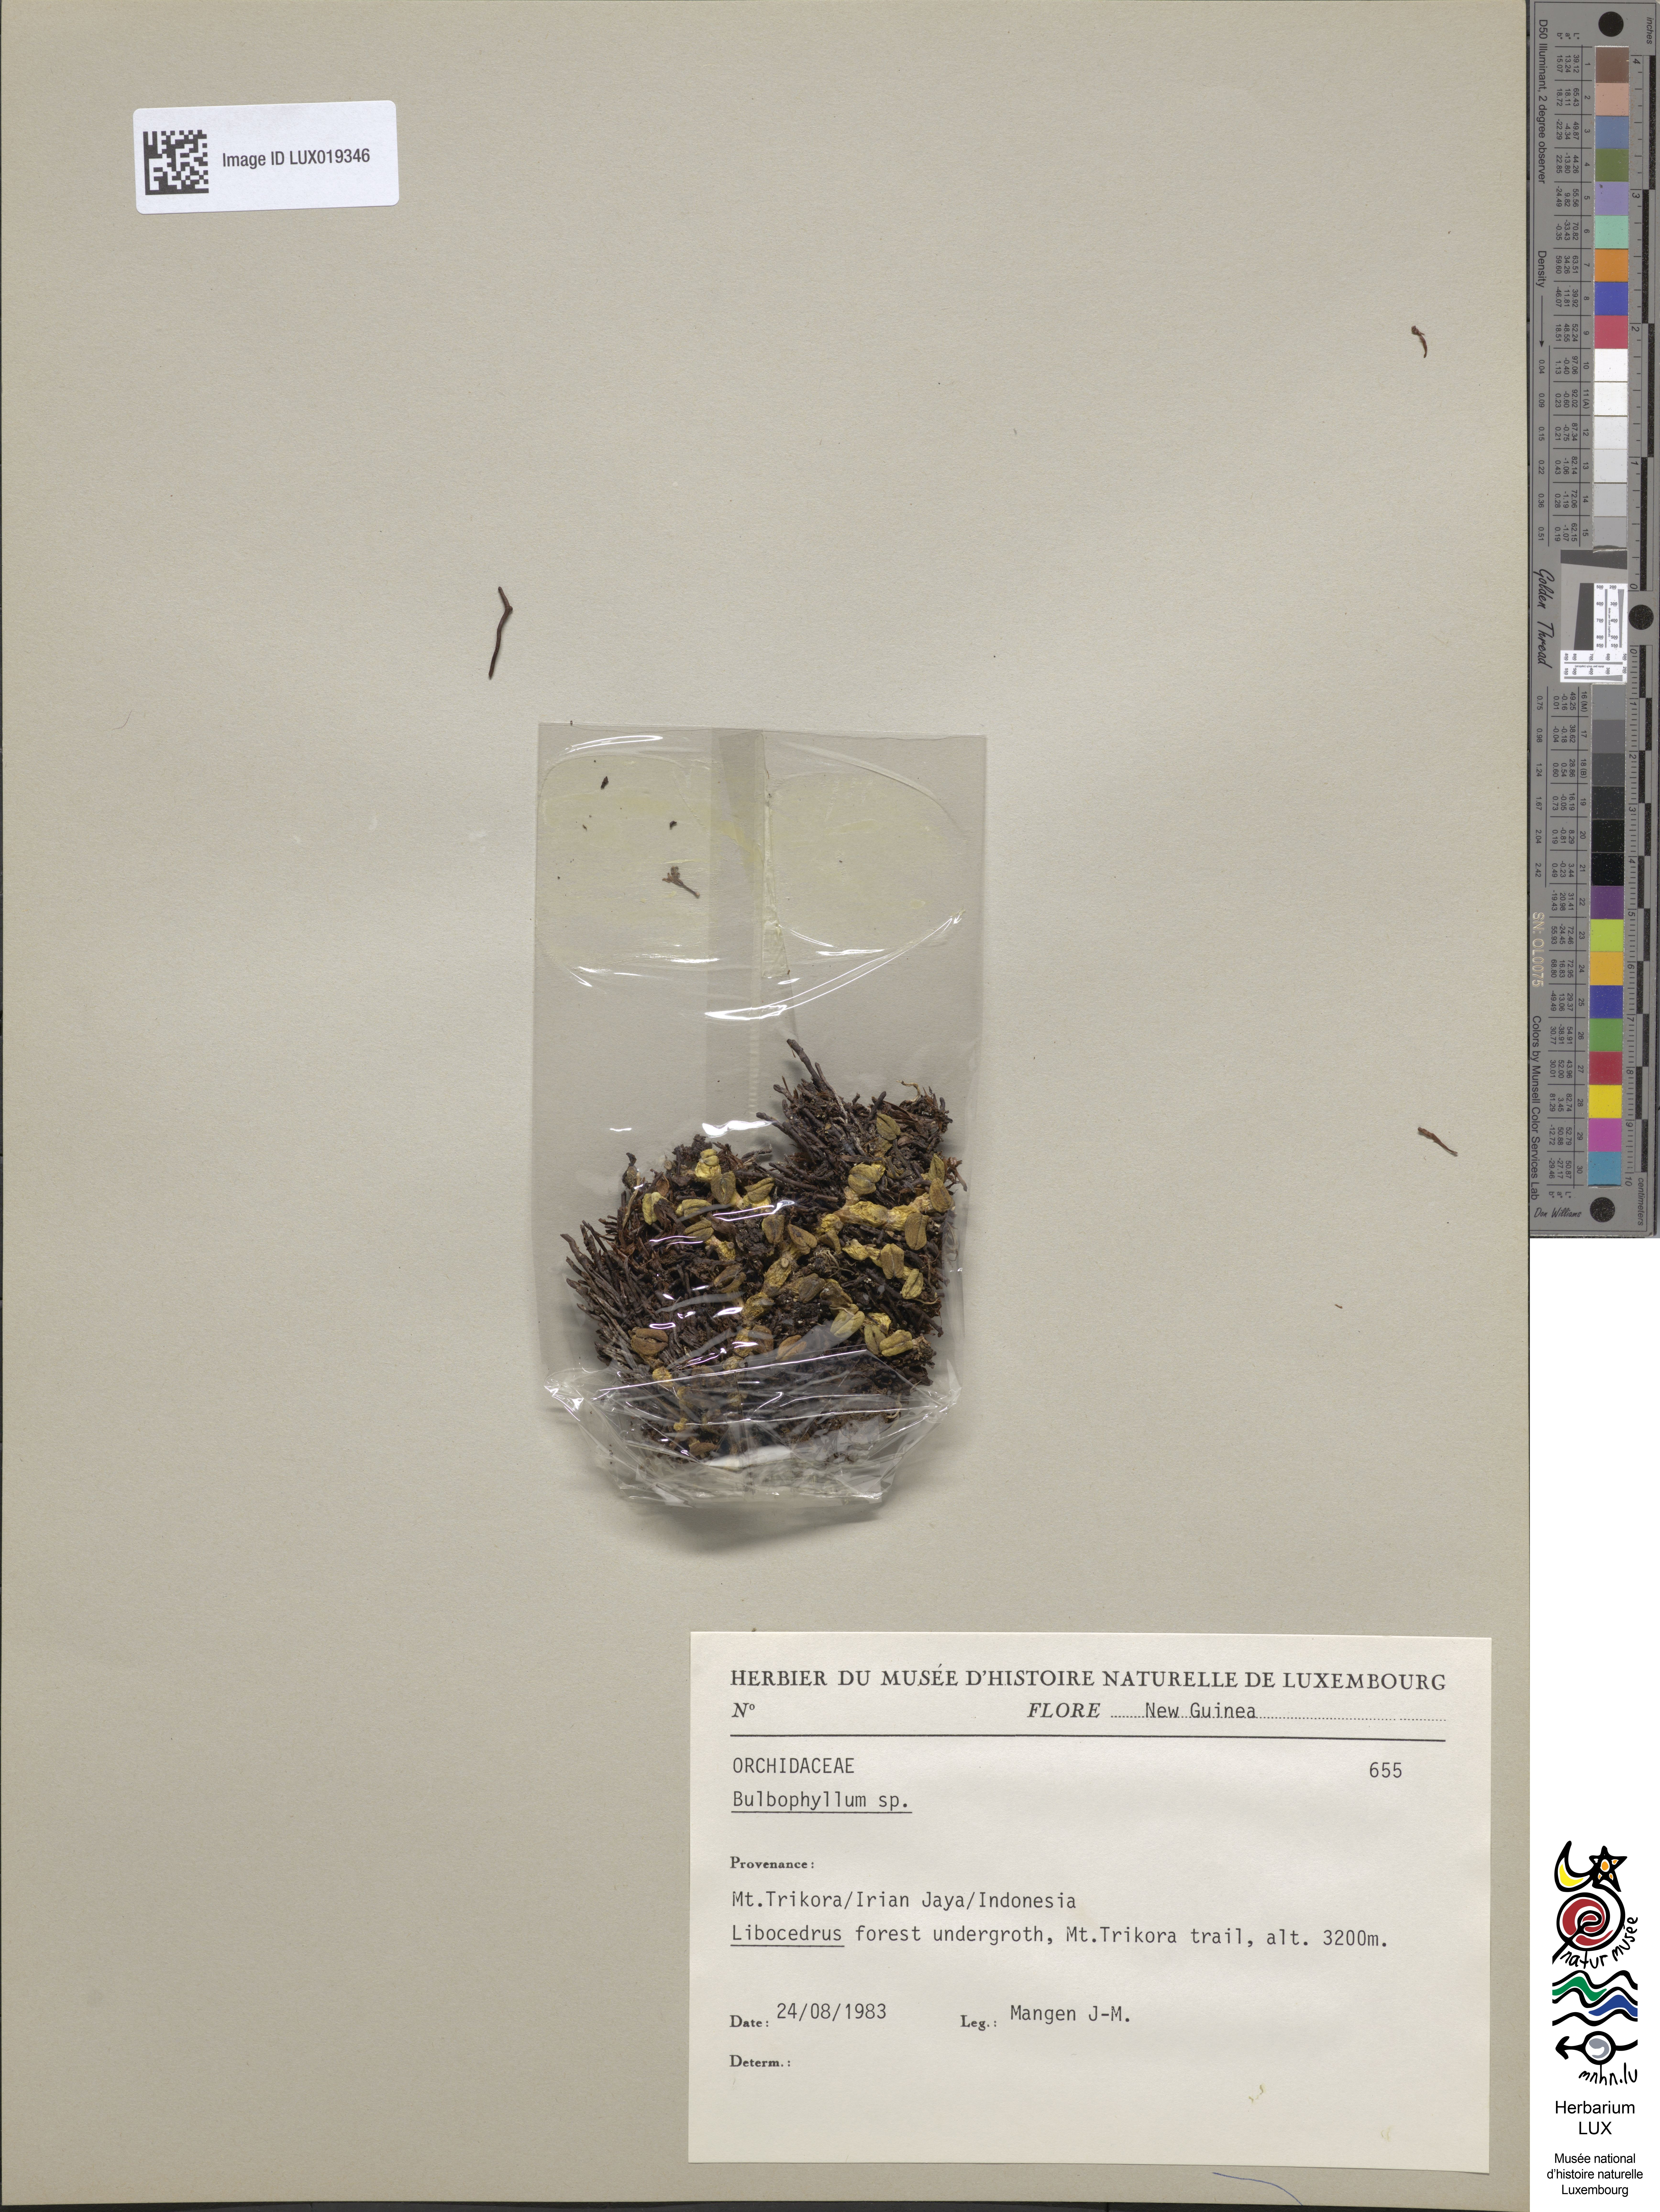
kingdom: Plantae
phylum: Tracheophyta
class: Liliopsida
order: Asparagales
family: Orchidaceae
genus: Bulbophyllum
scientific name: Bulbophyllum
